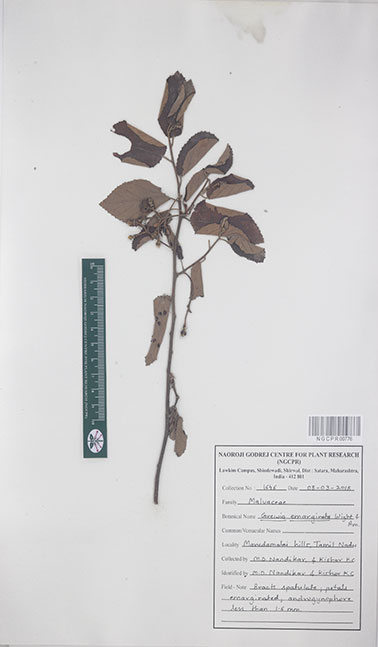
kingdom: Plantae
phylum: Tracheophyta
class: Magnoliopsida
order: Malvales
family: Malvaceae
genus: Grewia
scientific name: Grewia oppositifolia
